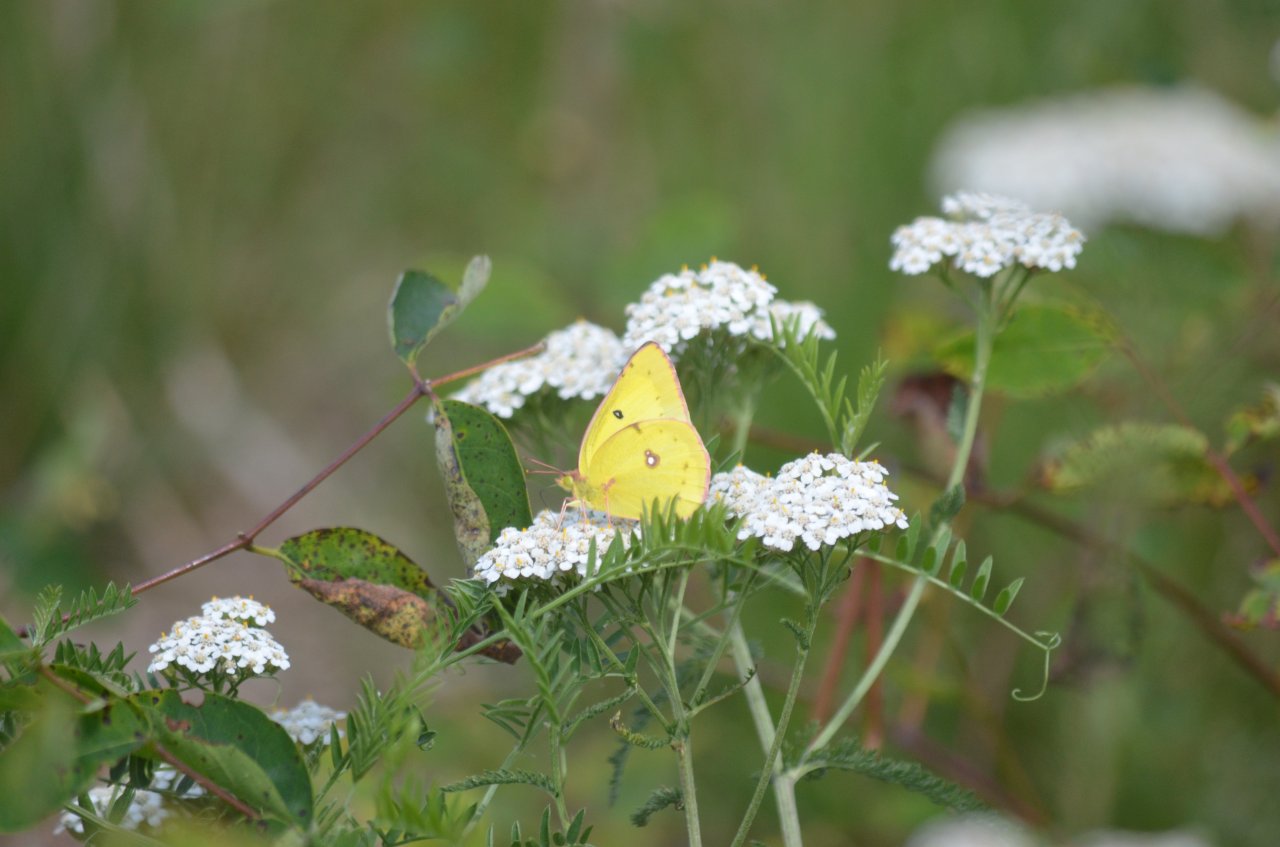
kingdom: Animalia
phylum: Arthropoda
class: Insecta
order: Lepidoptera
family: Pieridae
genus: Colias
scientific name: Colias philodice
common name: Clouded Sulphur
